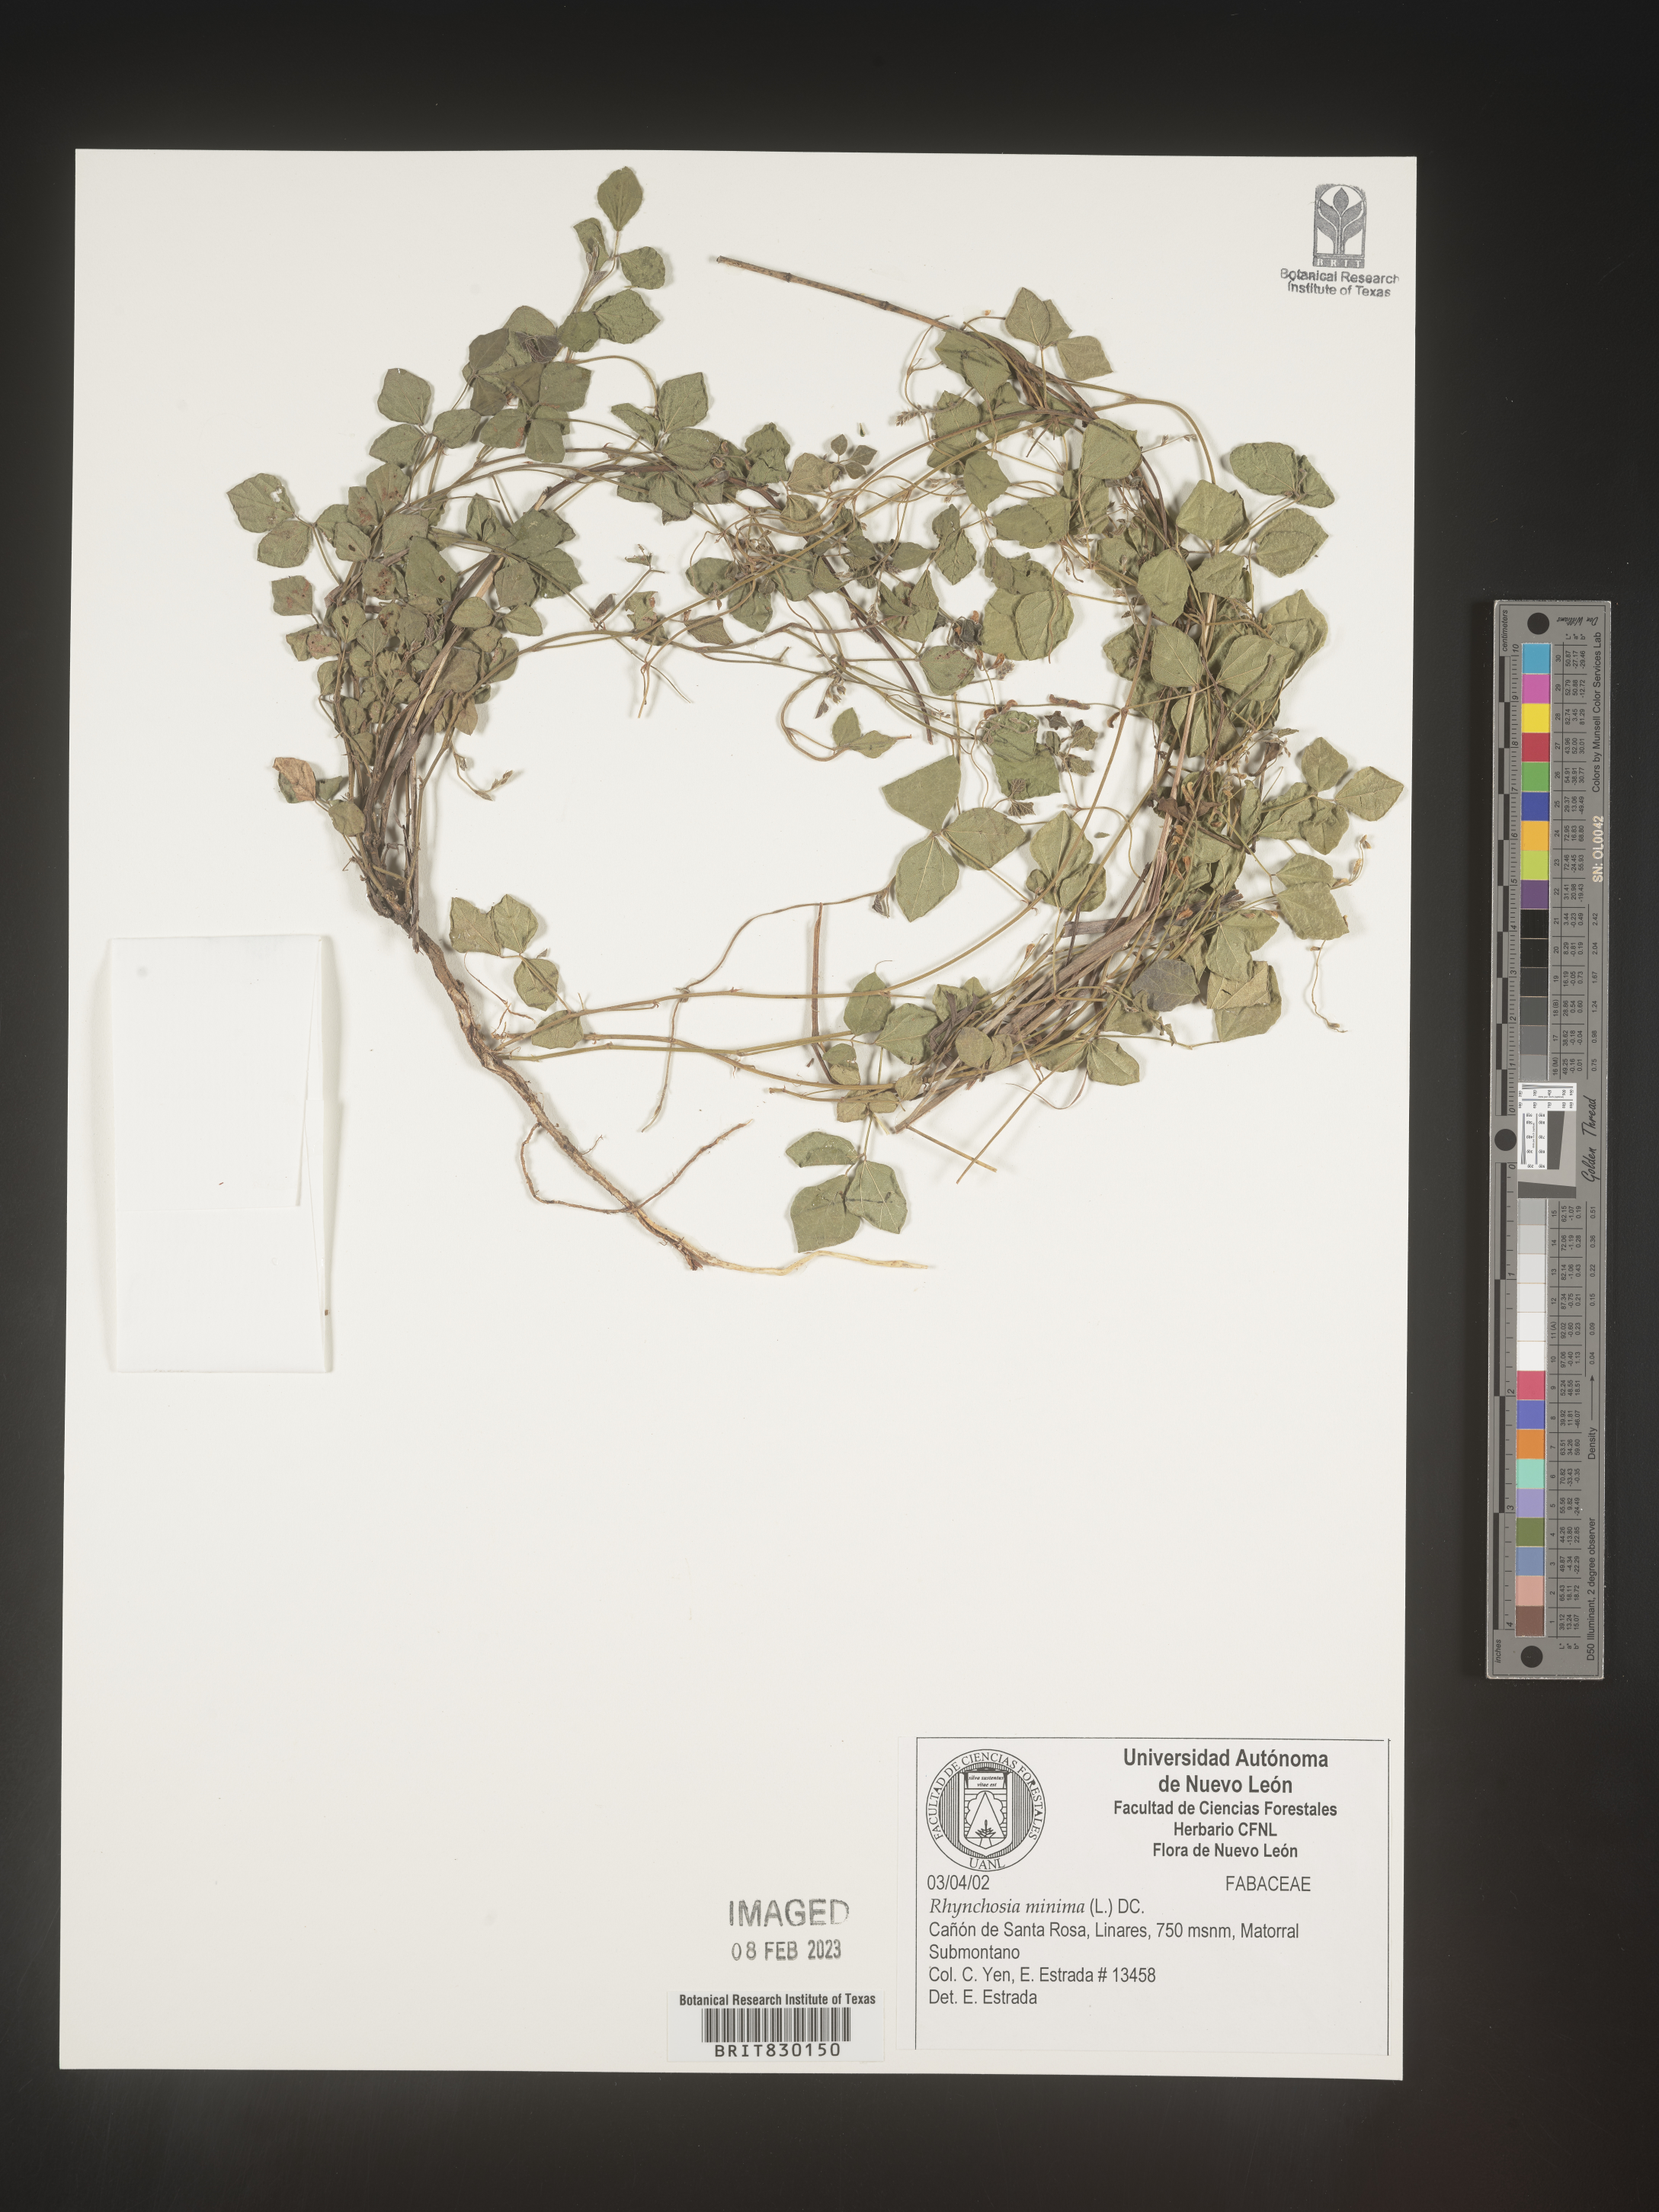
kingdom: Plantae
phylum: Tracheophyta
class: Magnoliopsida
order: Fabales
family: Fabaceae
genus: Rhynchosia
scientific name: Rhynchosia
